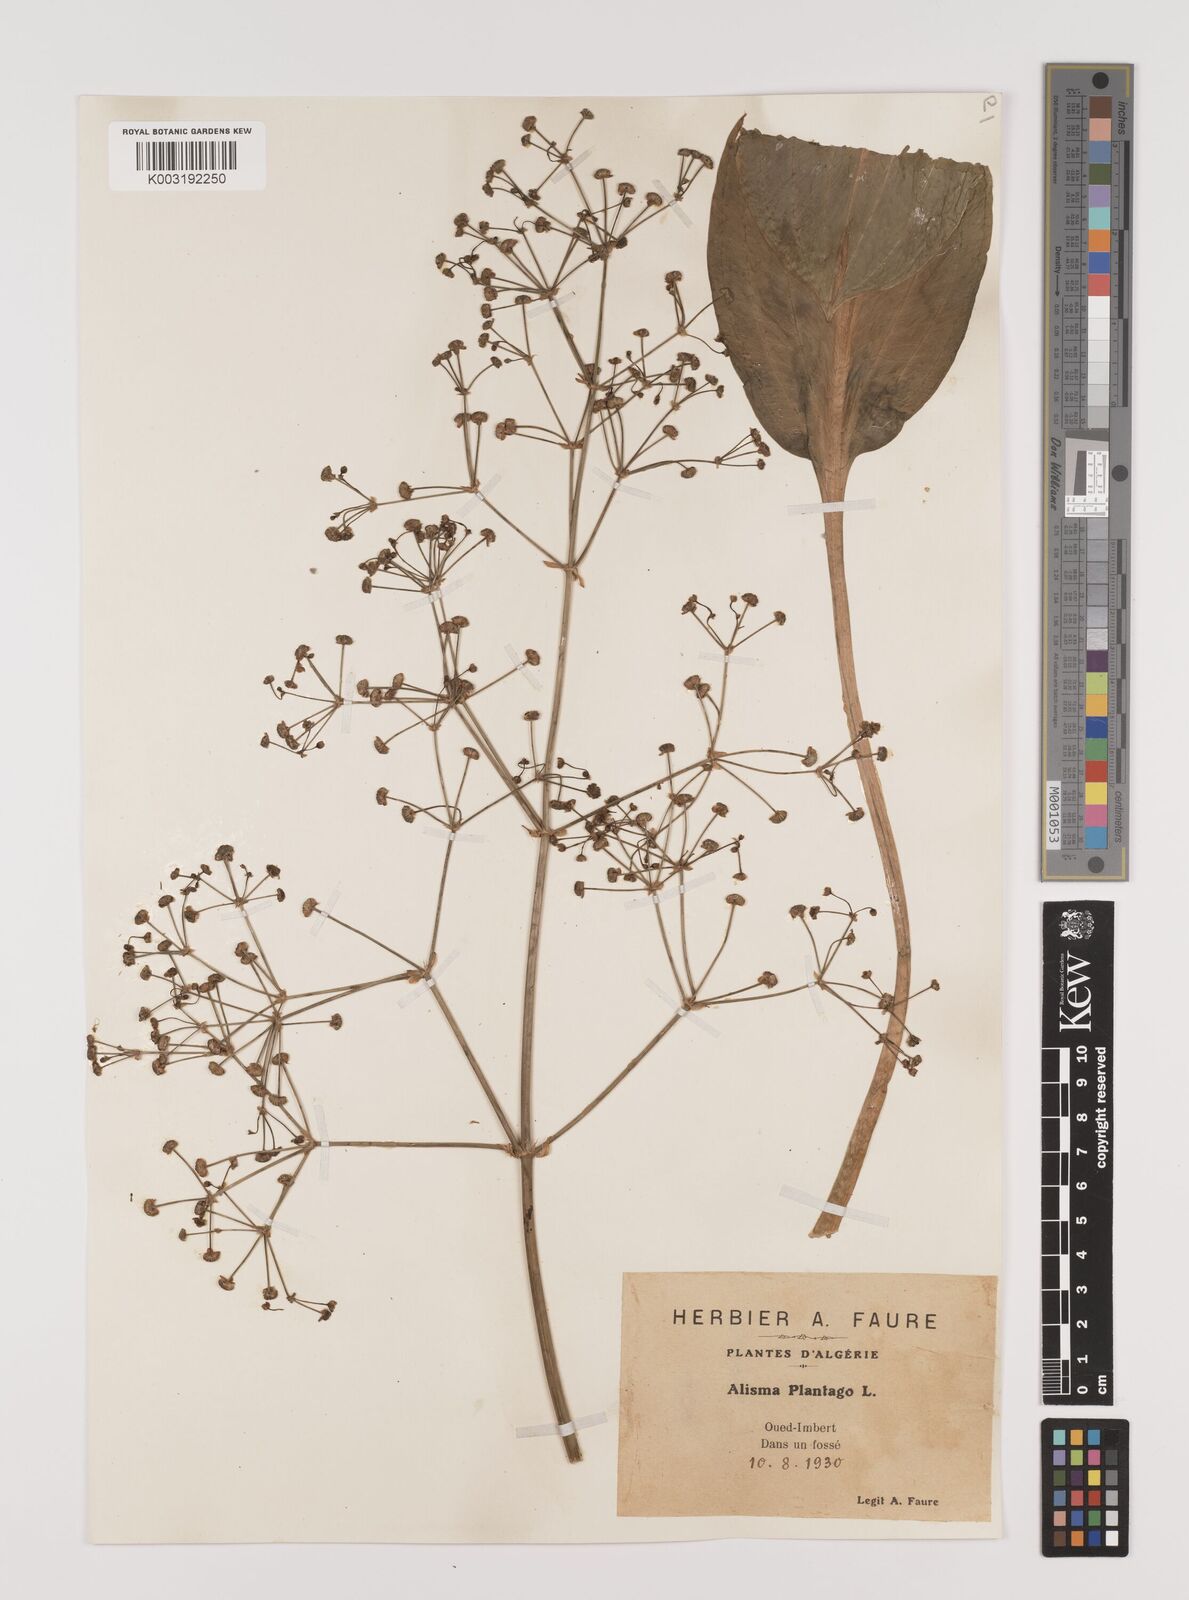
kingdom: Plantae
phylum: Tracheophyta
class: Liliopsida
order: Alismatales
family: Alismataceae
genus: Alisma
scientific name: Alisma plantago-aquatica
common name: Water-plantain
